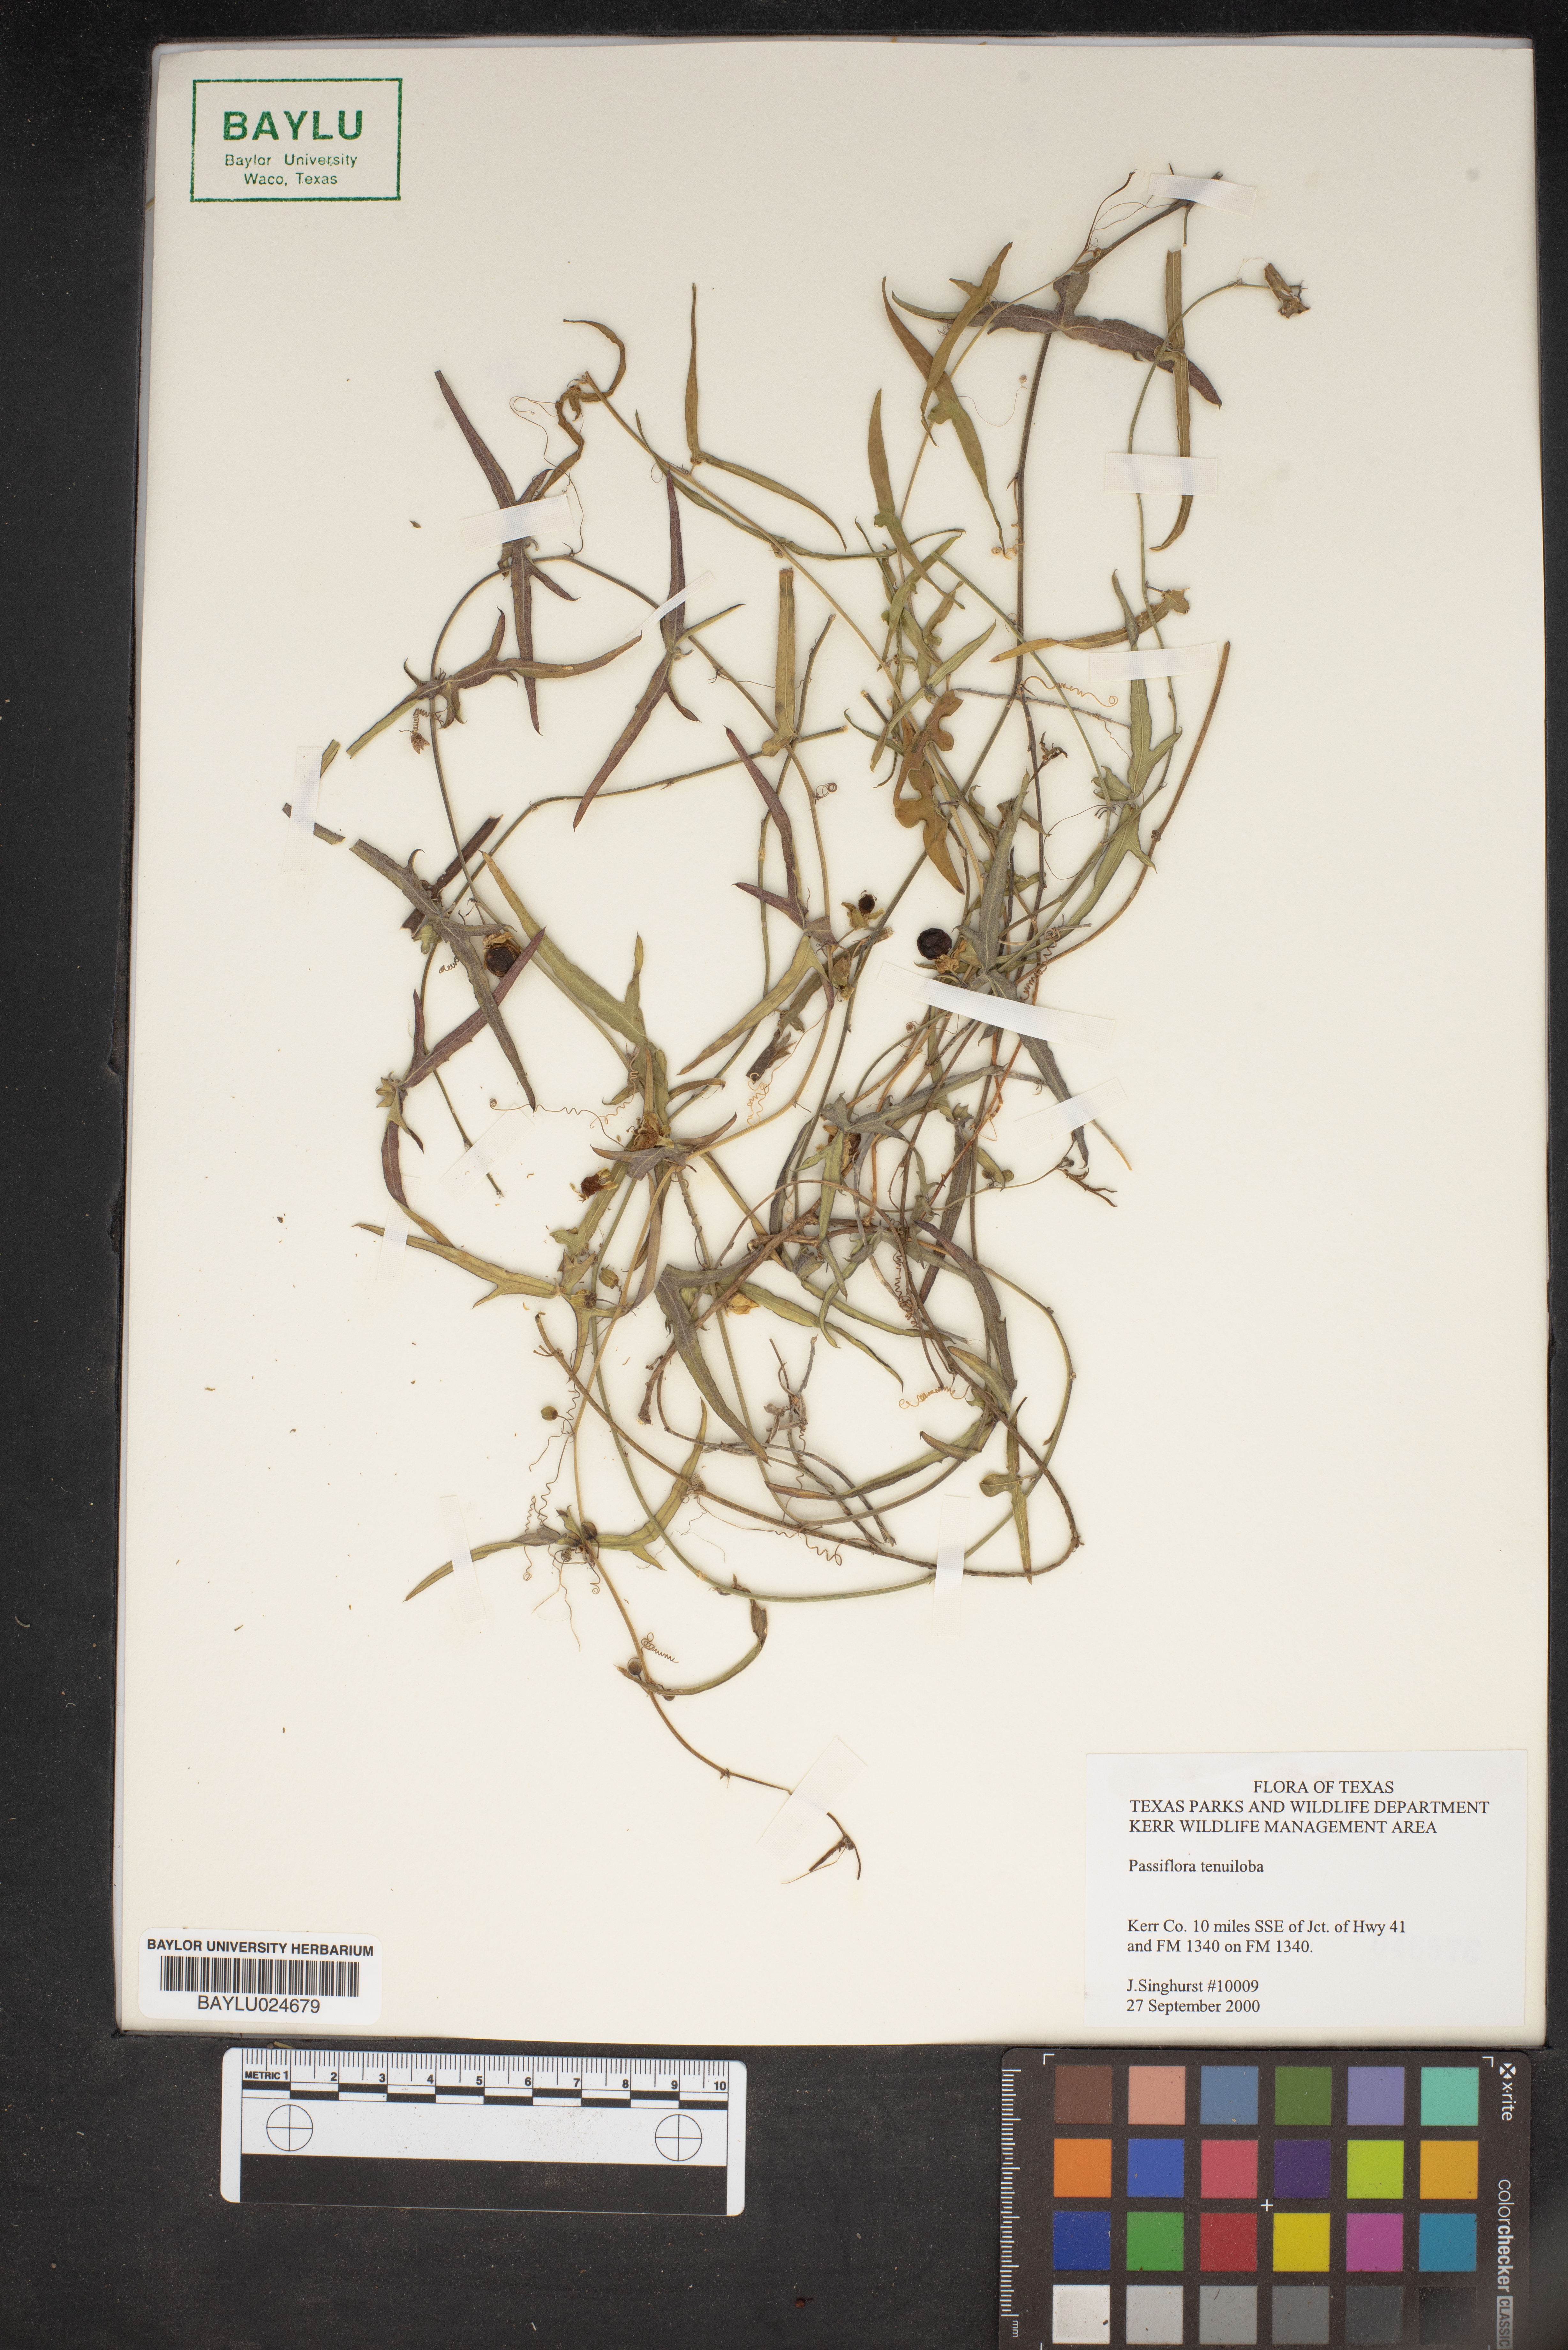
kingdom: Plantae
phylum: Tracheophyta
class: Magnoliopsida
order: Malpighiales
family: Passifloraceae
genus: Passiflora
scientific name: Passiflora tenuiloba
